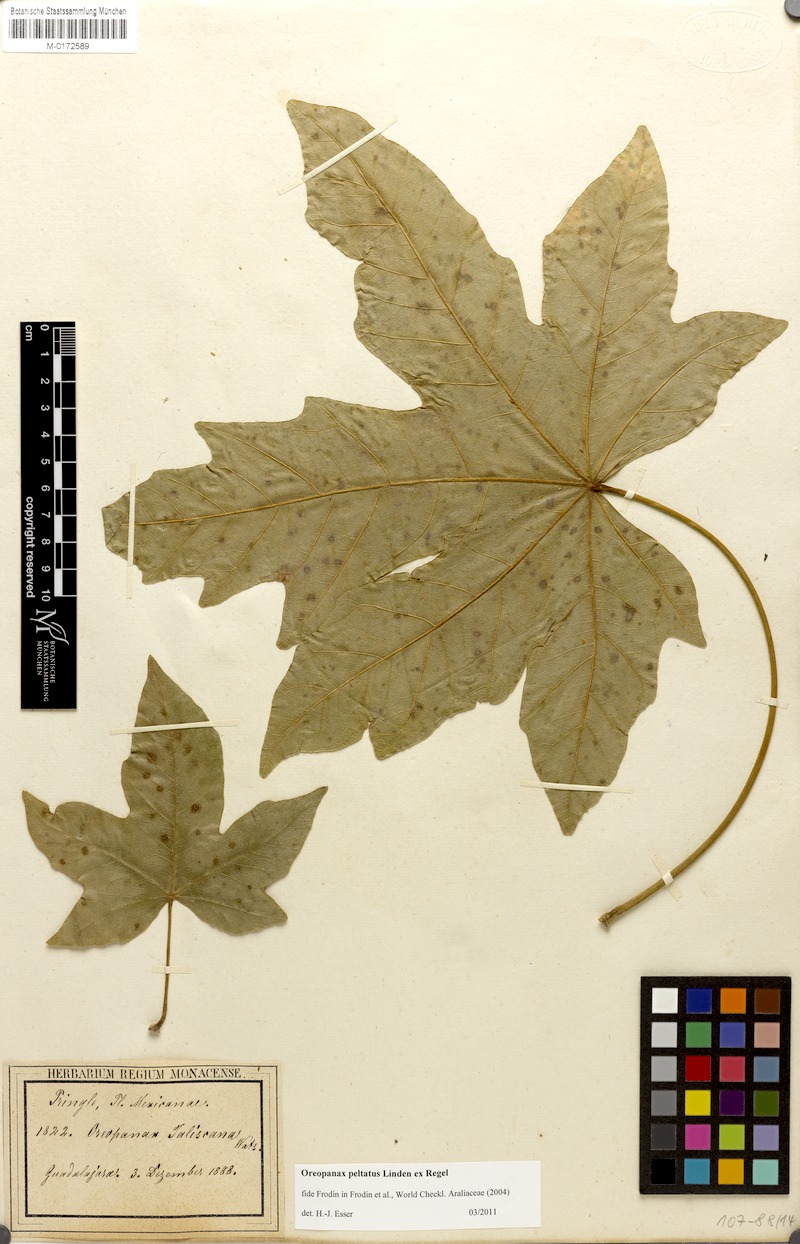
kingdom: Plantae
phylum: Tracheophyta
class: Magnoliopsida
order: Apiales
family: Araliaceae
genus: Oreopanax
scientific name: Oreopanax peltatus
